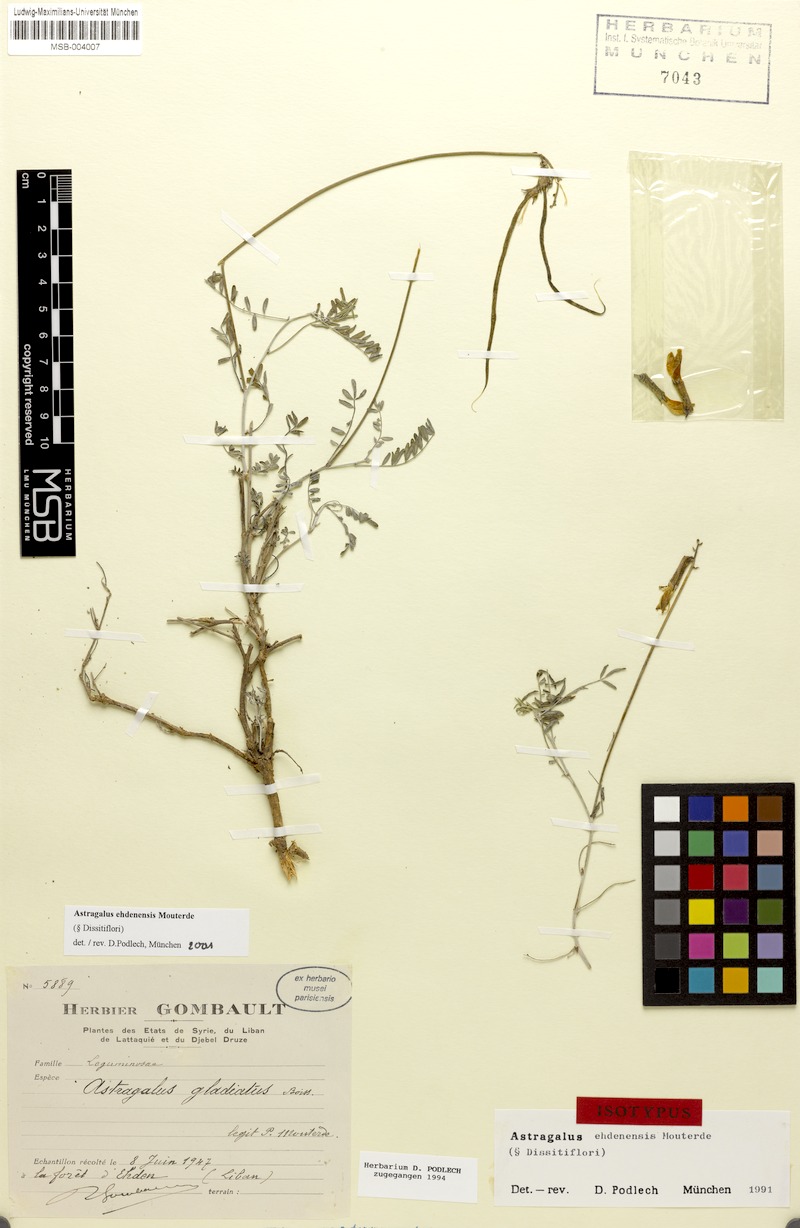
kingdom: Plantae
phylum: Tracheophyta
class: Magnoliopsida
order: Fabales
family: Fabaceae
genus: Astragalus
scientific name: Astragalus ehdenensis
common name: Ehden milk-vetch
